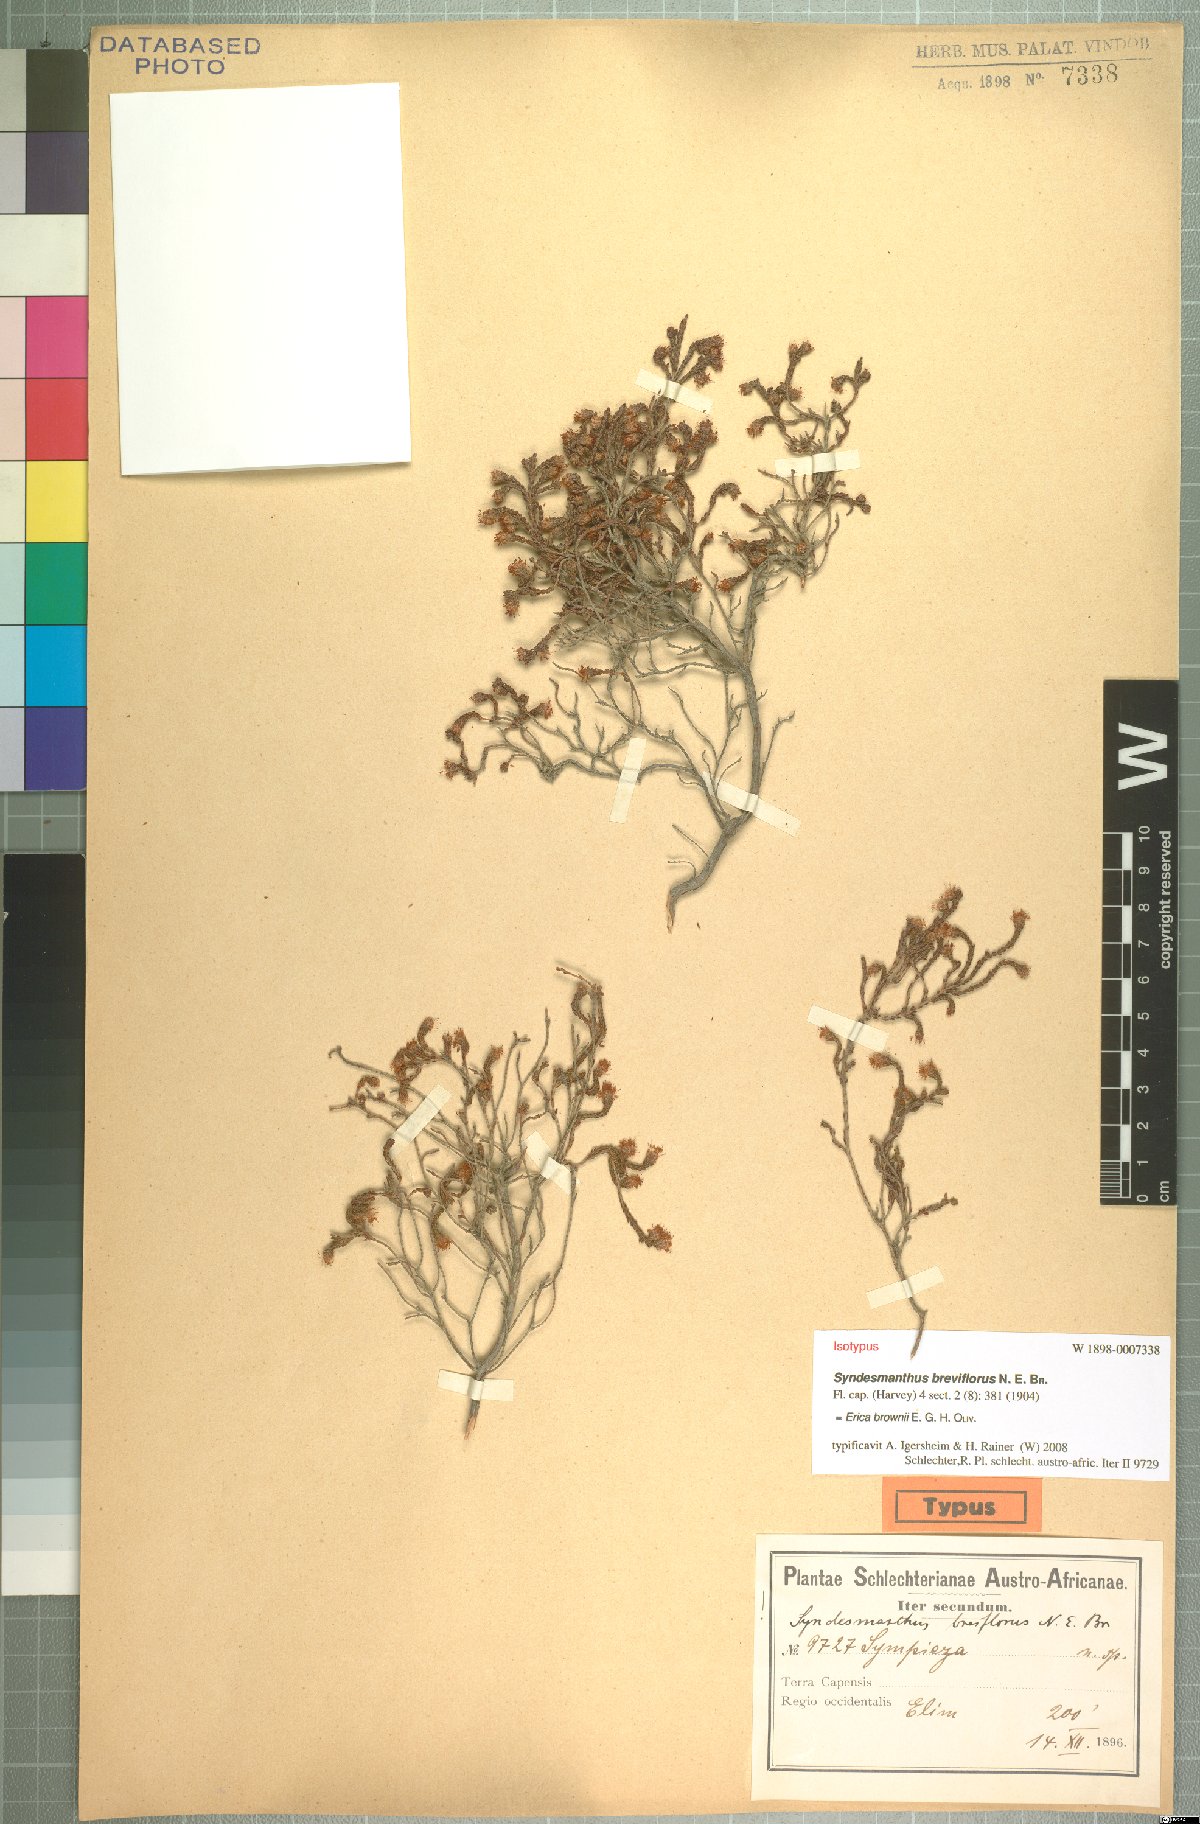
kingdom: Plantae
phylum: Tracheophyta
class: Magnoliopsida
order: Ericales
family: Ericaceae
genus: Erica
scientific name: Erica brownii
